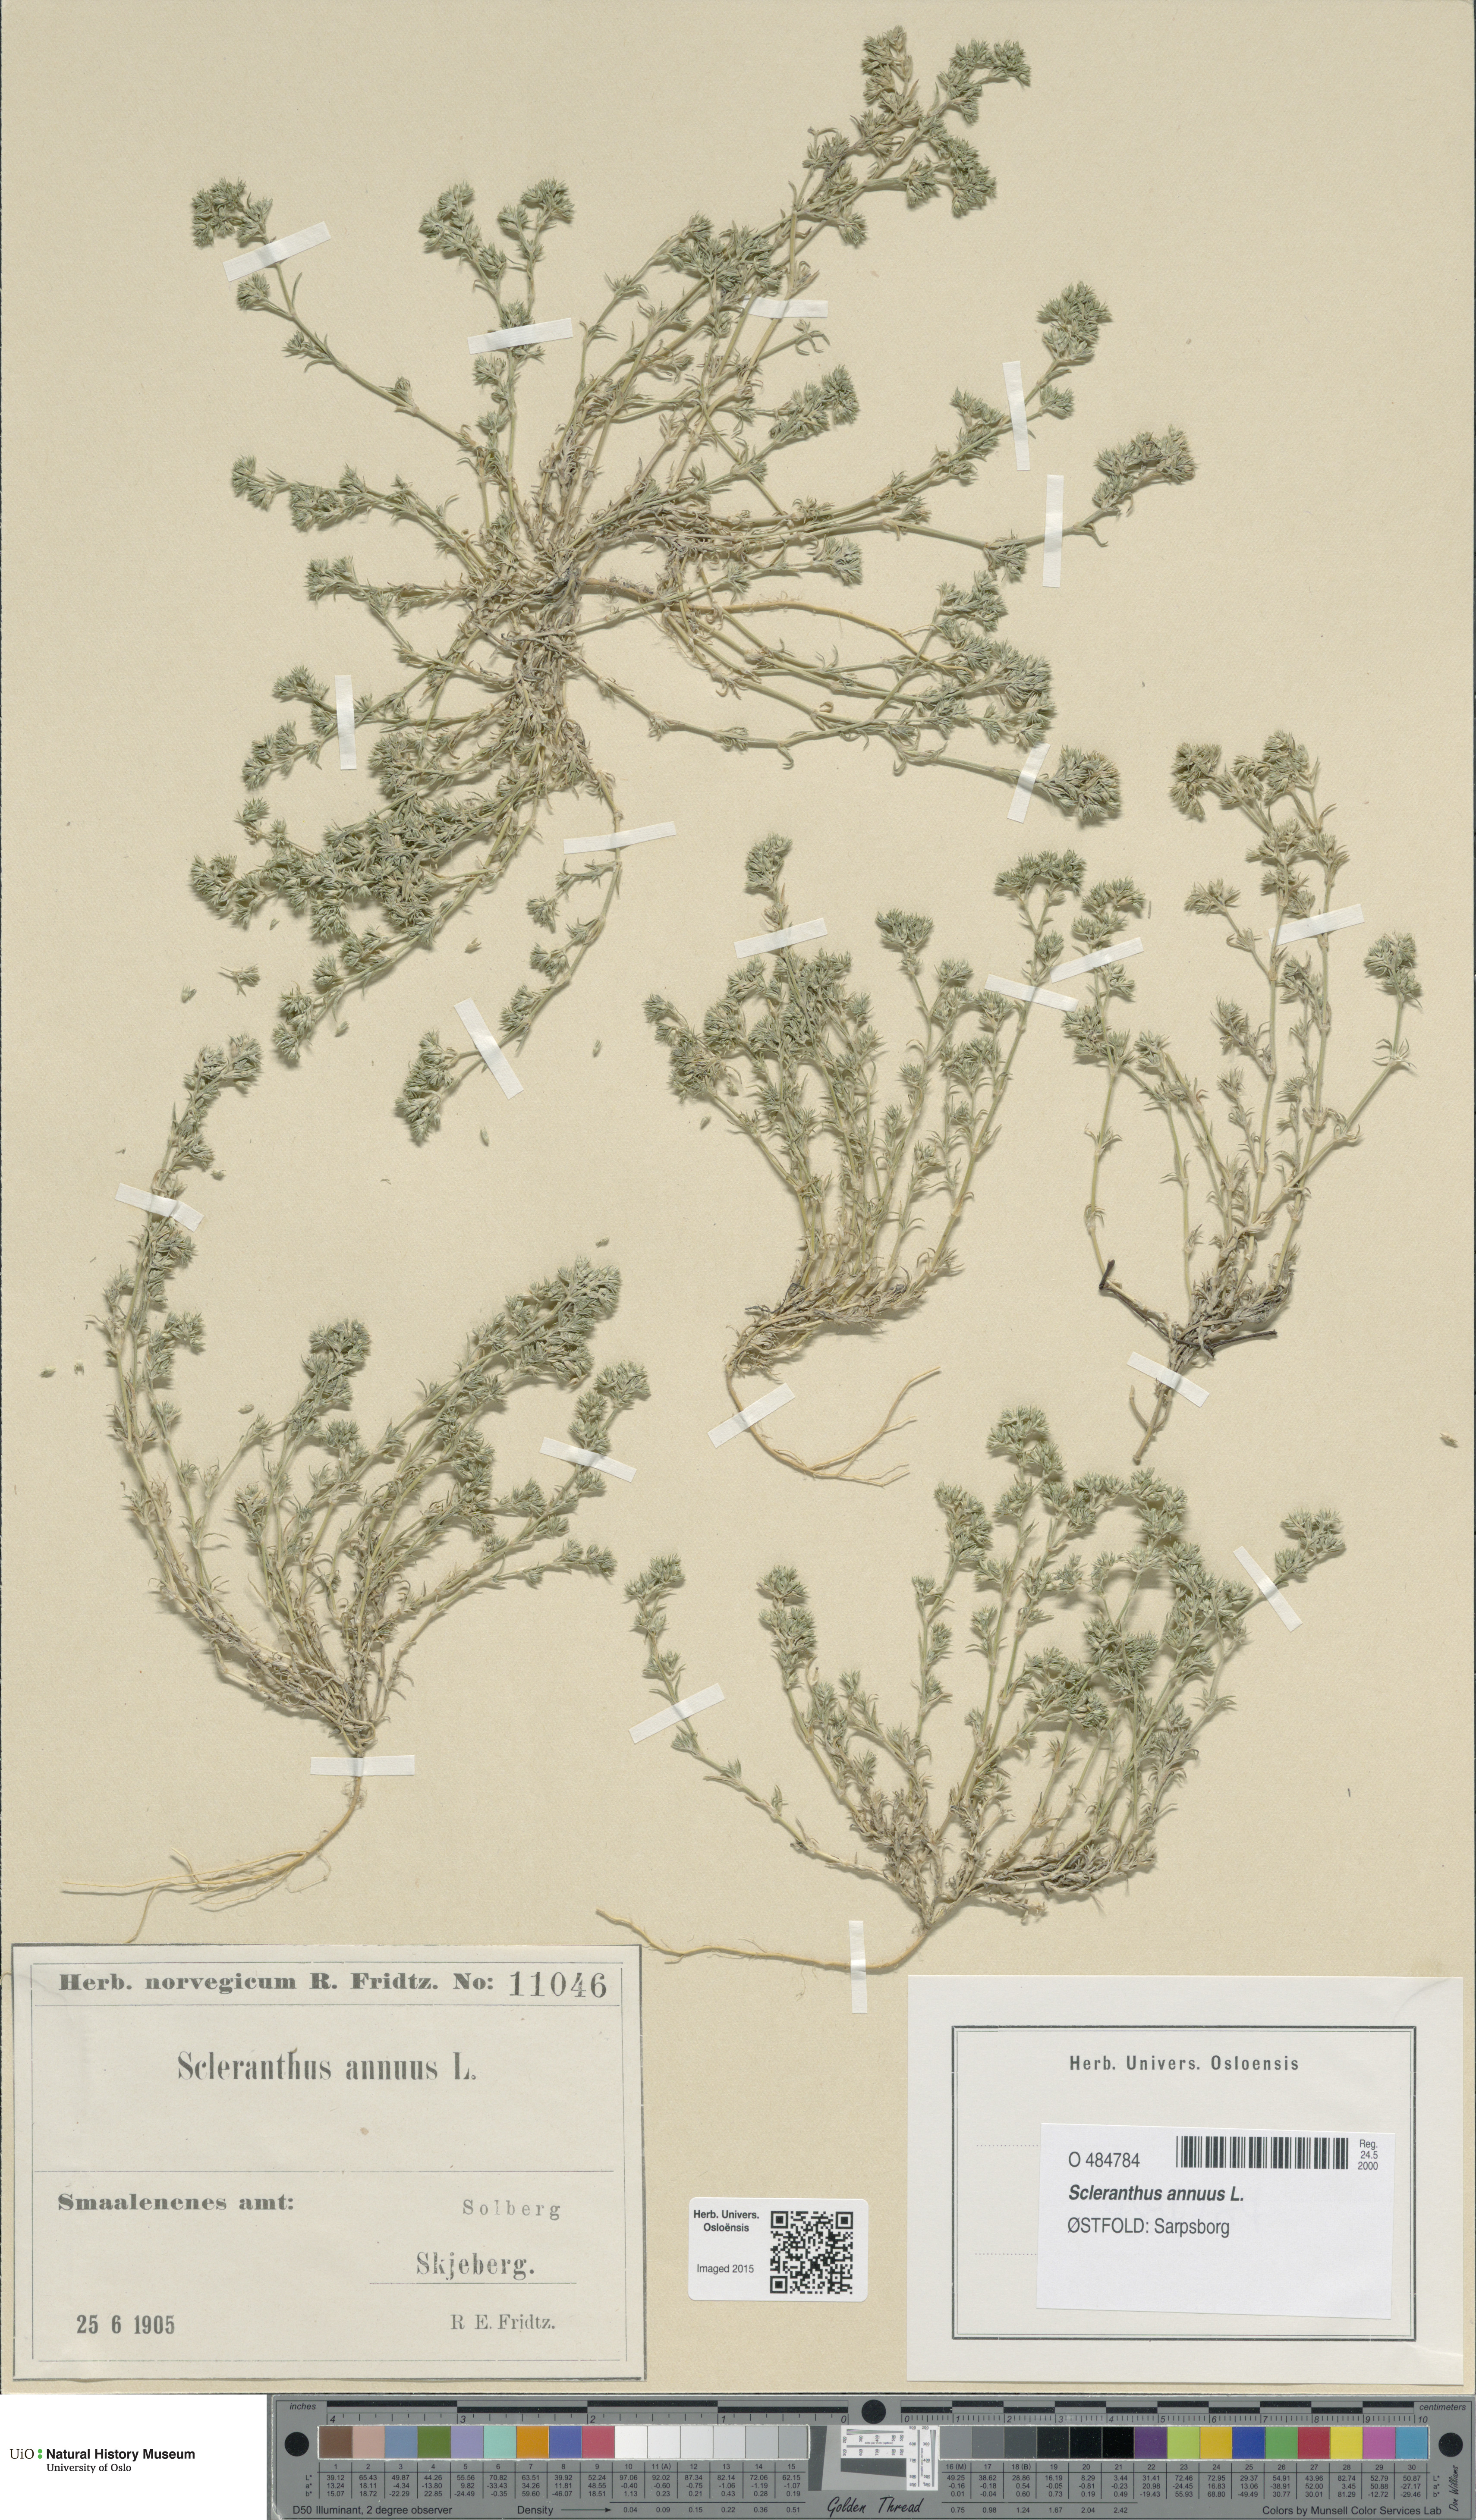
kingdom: Plantae
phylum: Tracheophyta
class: Magnoliopsida
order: Caryophyllales
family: Caryophyllaceae
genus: Scleranthus
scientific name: Scleranthus annuus
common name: Annual knawel
